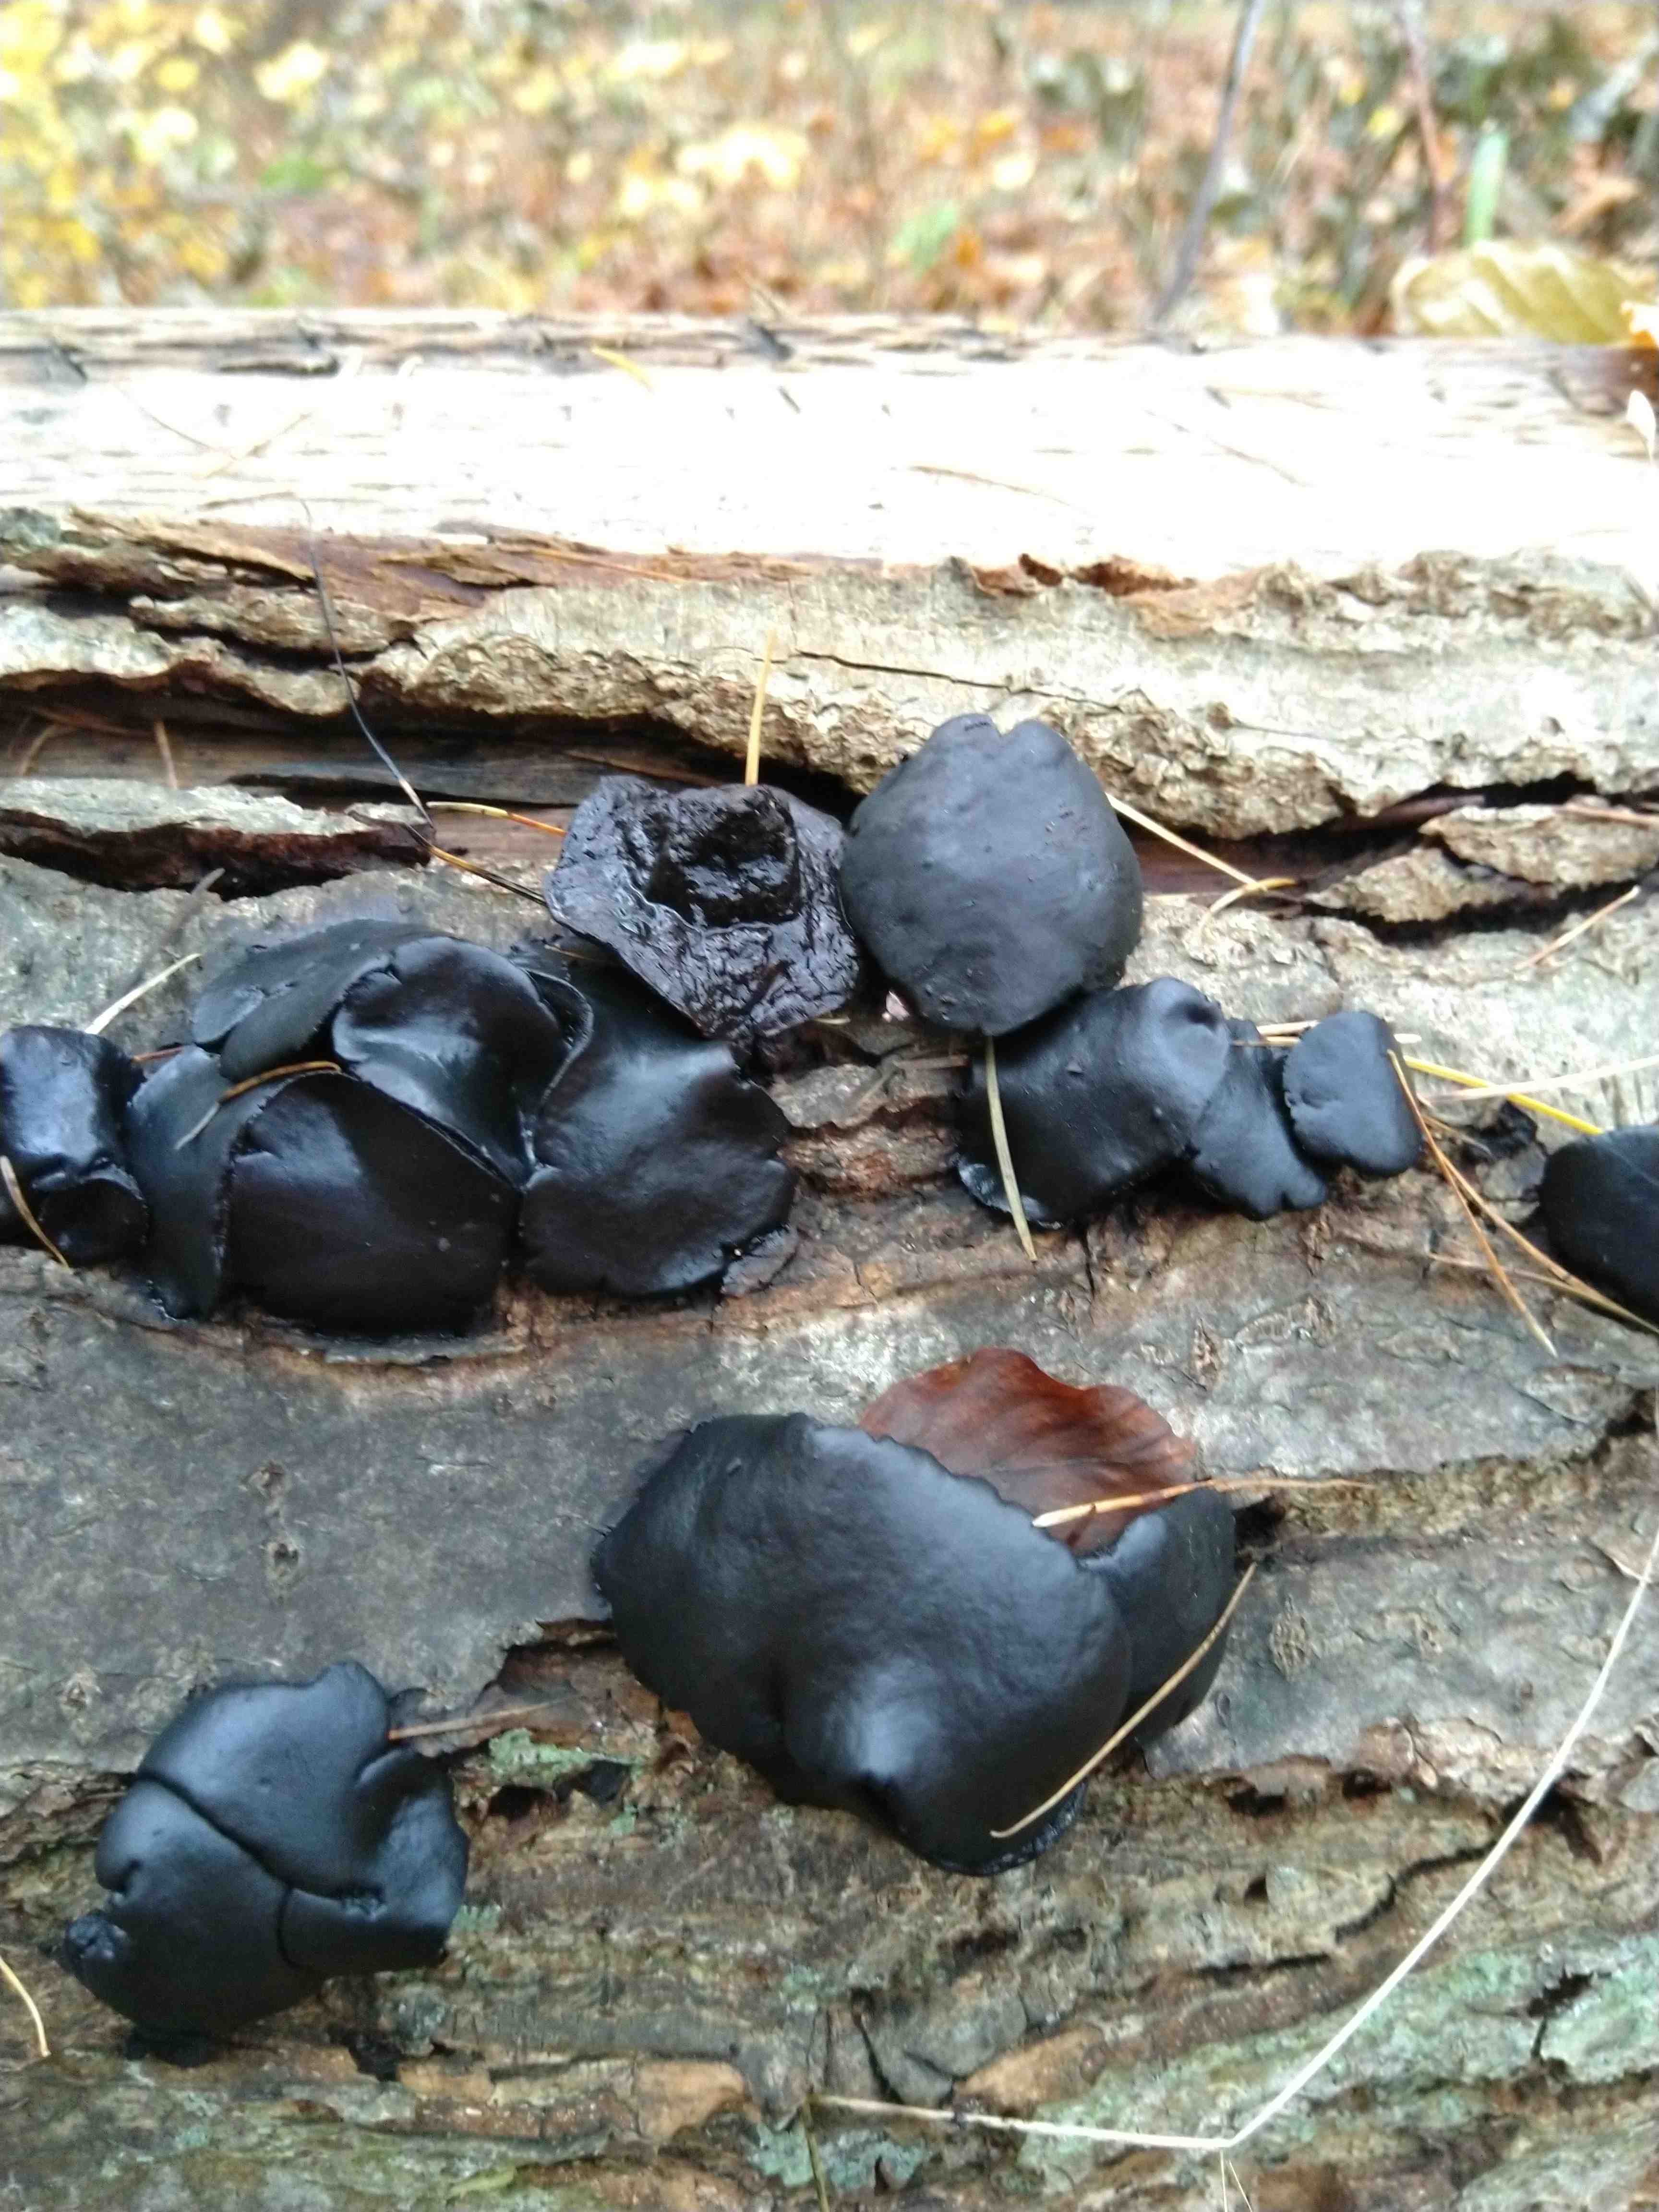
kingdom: Fungi
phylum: Ascomycota
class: Leotiomycetes
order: Phacidiales
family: Phacidiaceae
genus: Bulgaria
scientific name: Bulgaria inquinans
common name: afsmittende topsvamp
